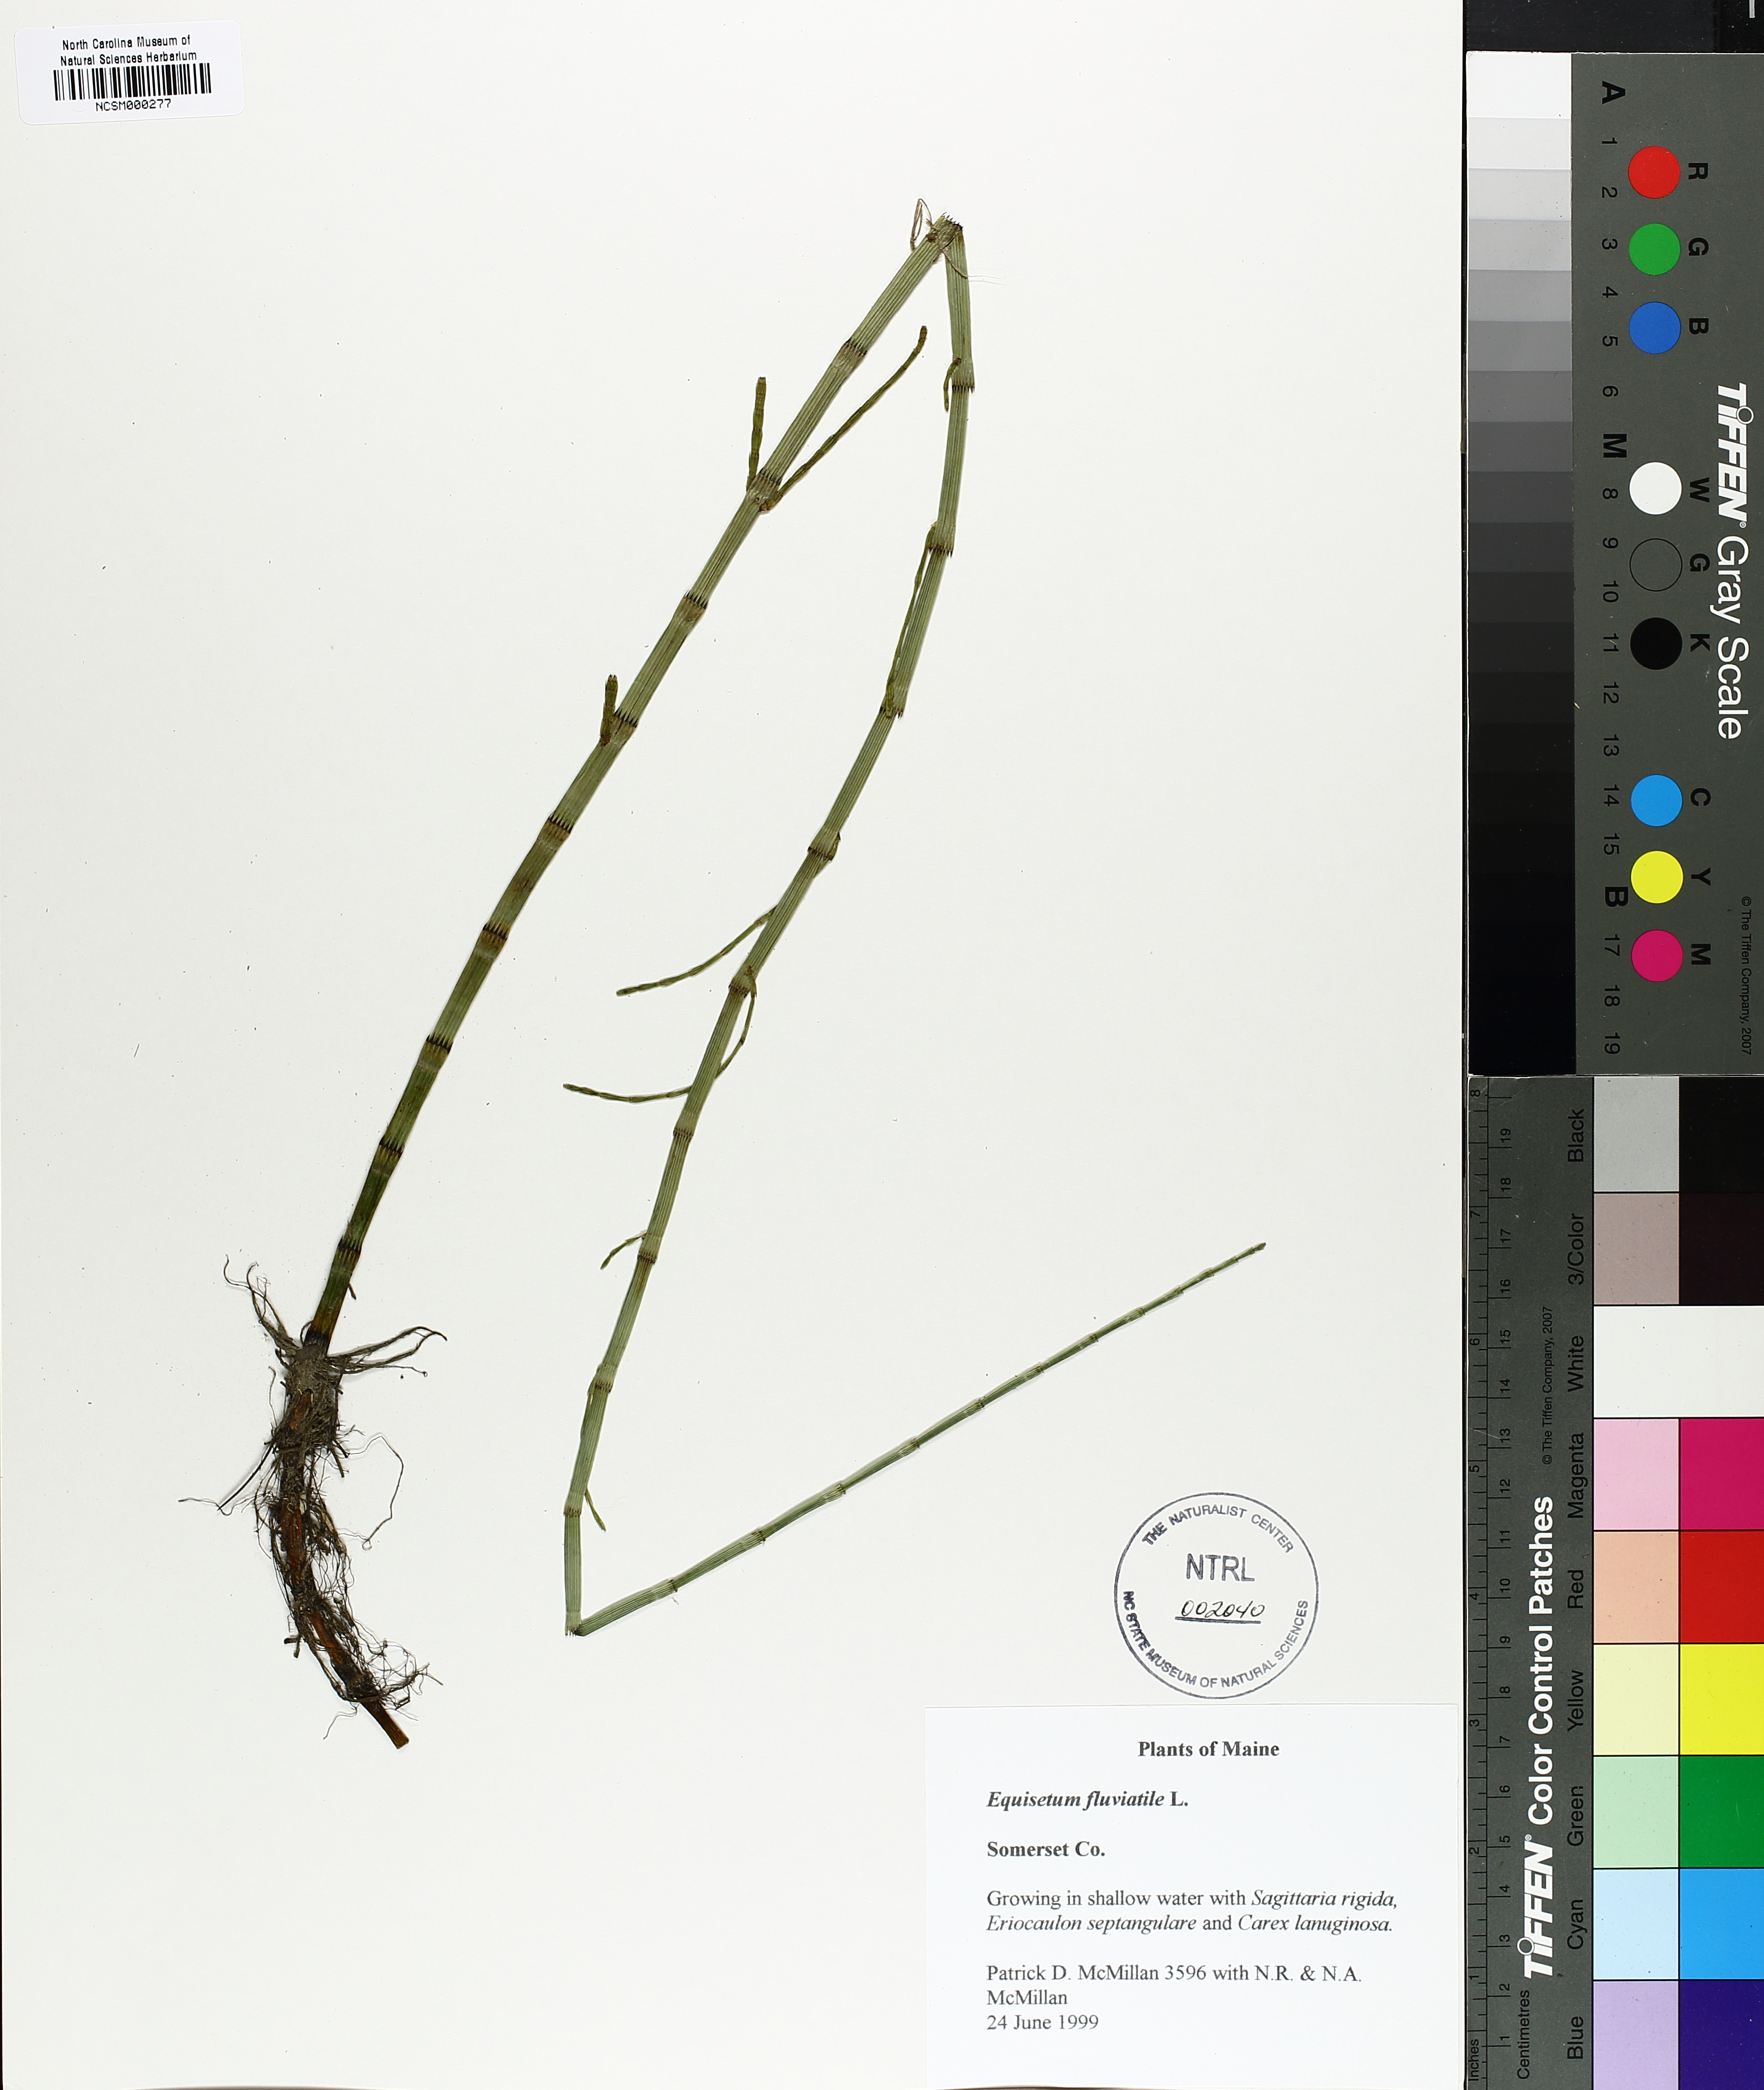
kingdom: Plantae
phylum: Tracheophyta
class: Polypodiopsida
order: Equisetales
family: Equisetaceae
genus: Equisetum
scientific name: Equisetum fluviatile
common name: Water horsetail
